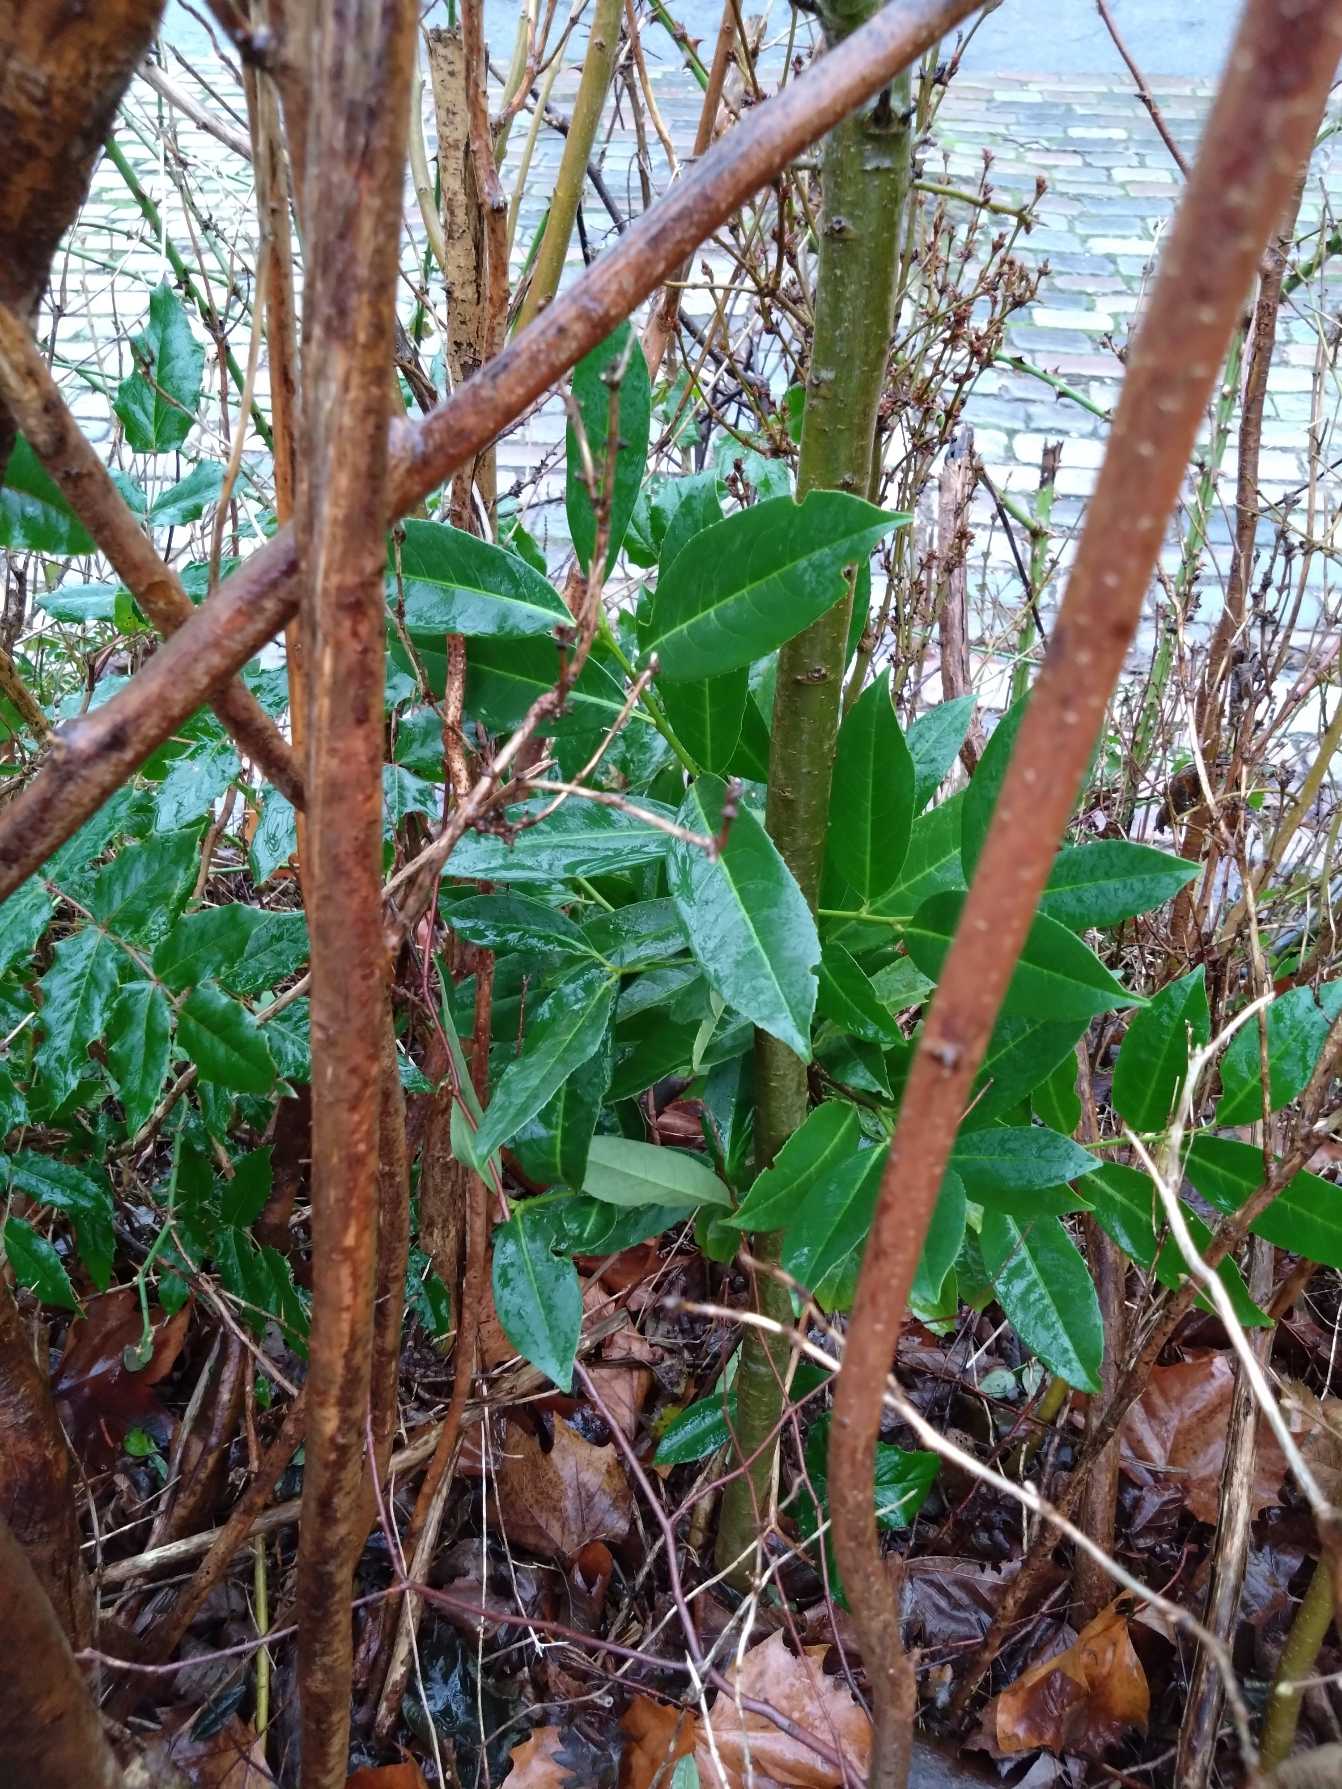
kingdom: Plantae
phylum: Tracheophyta
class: Magnoliopsida
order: Rosales
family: Rosaceae
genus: Prunus
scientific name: Prunus laurocerasus
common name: Laurbærkirsebær
